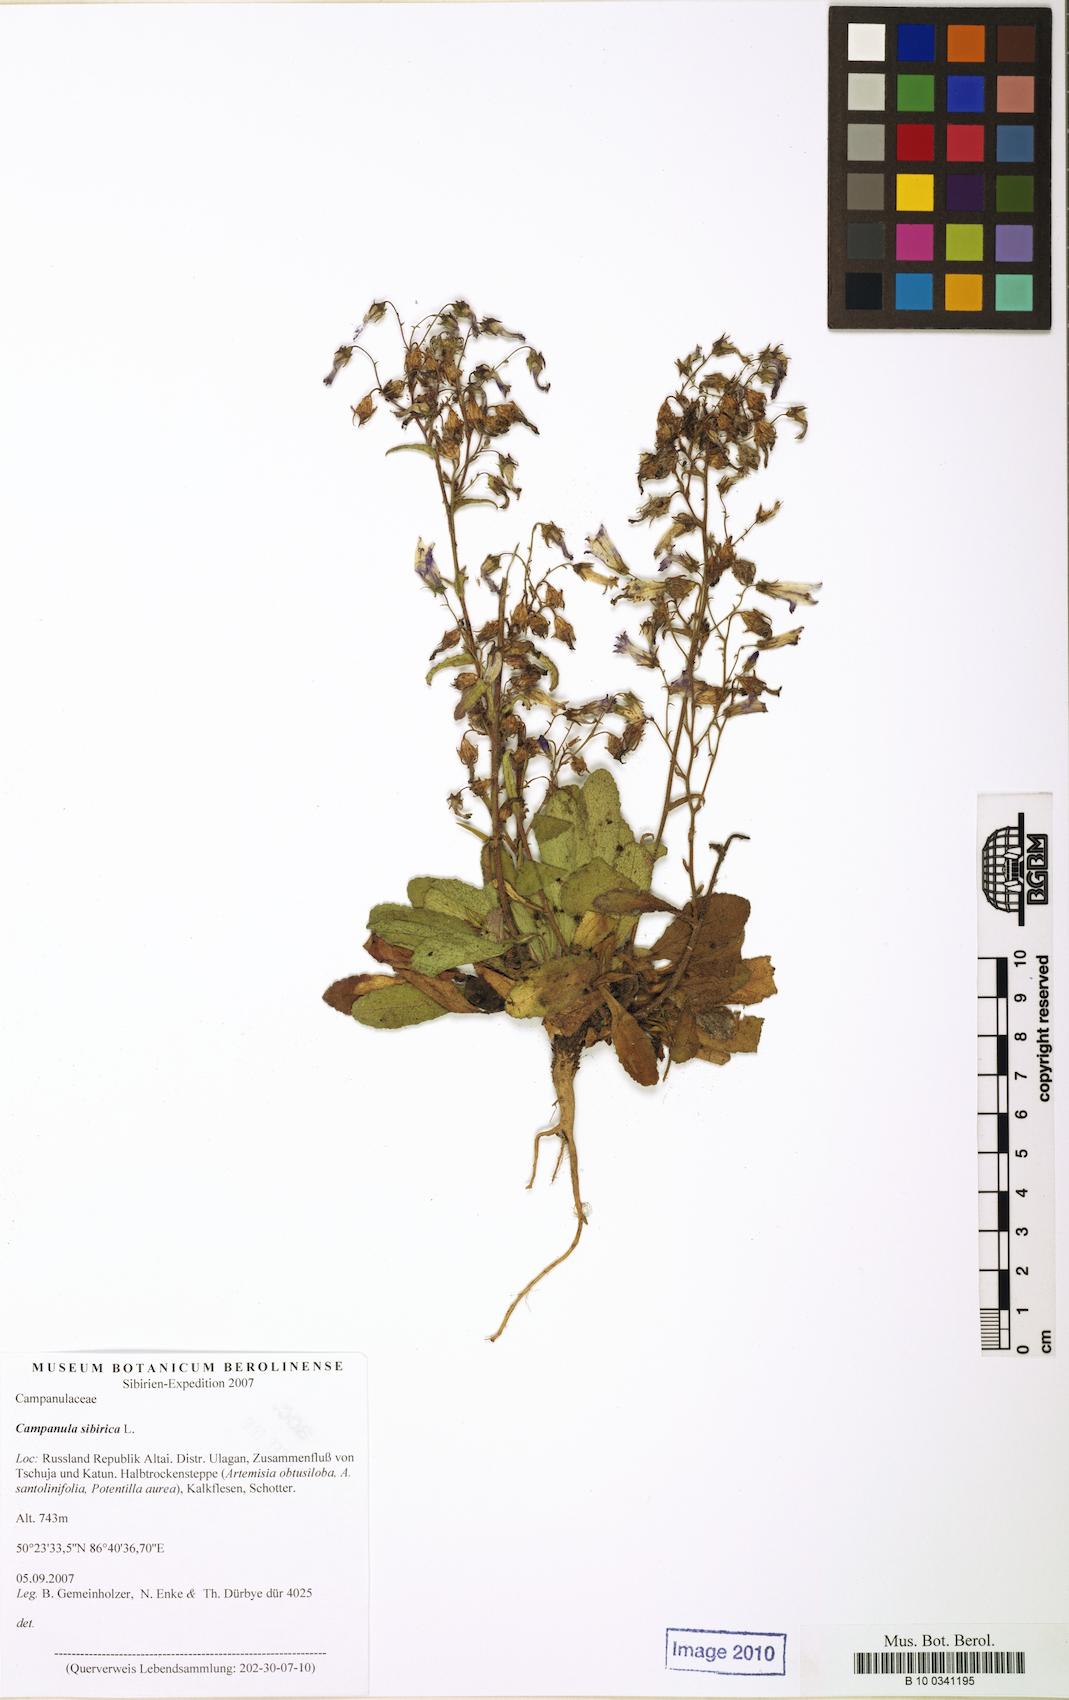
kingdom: Plantae
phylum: Tracheophyta
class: Magnoliopsida
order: Asterales
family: Campanulaceae
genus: Campanula
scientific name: Campanula sibirica
